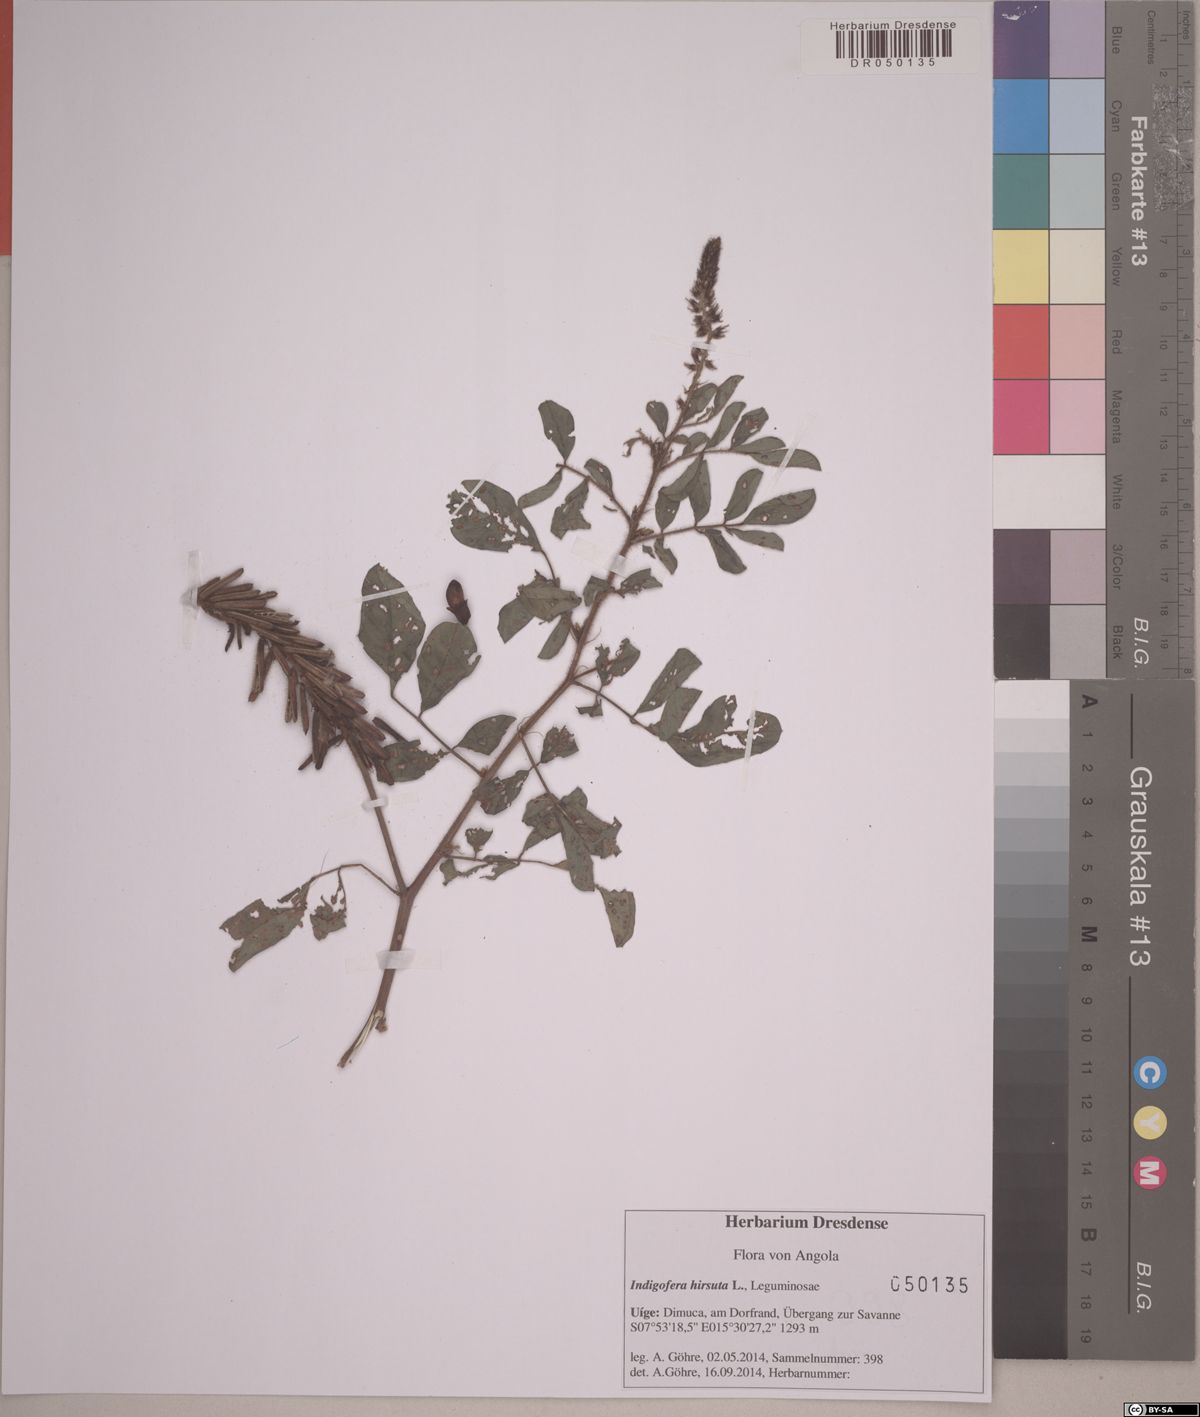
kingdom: Plantae
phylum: Tracheophyta
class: Magnoliopsida
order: Fabales
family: Fabaceae
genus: Indigofera
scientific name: Indigofera hirsuta
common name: Hairy indigo
